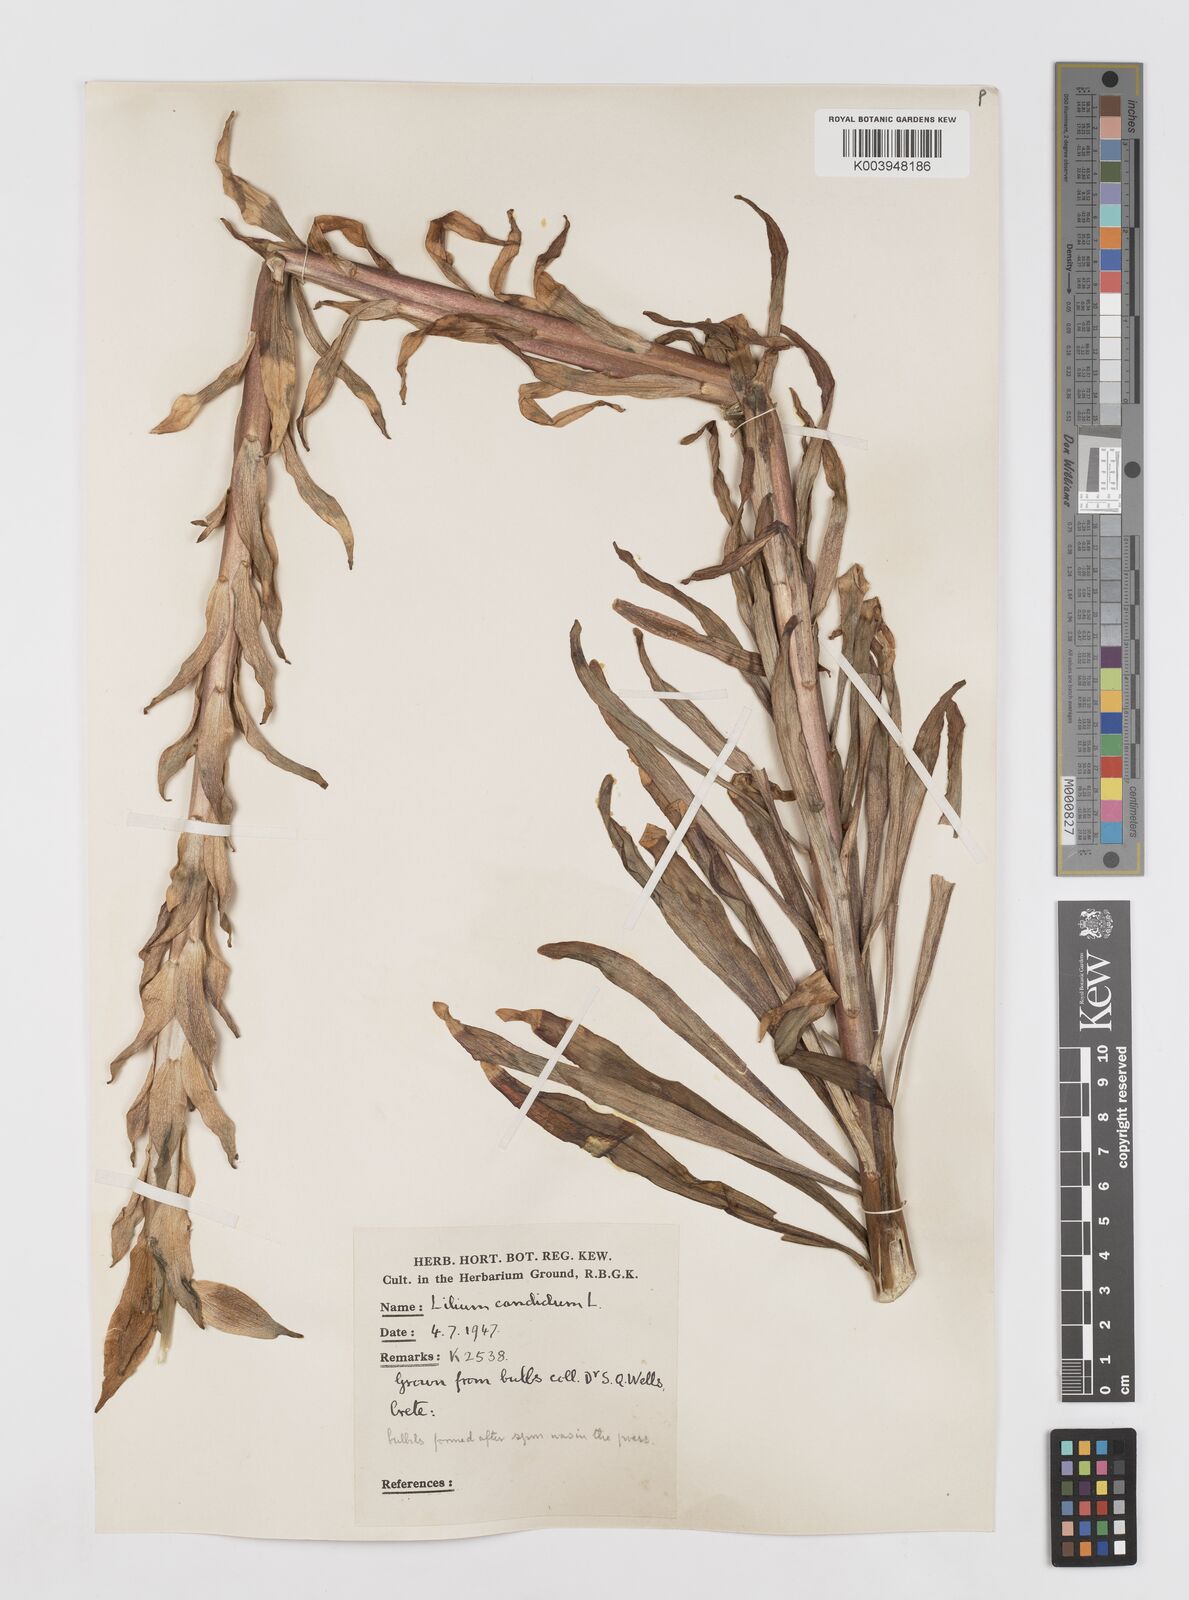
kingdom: Plantae
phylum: Tracheophyta
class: Liliopsida
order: Liliales
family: Liliaceae
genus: Lilium
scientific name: Lilium candidum
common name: Madonna lily
